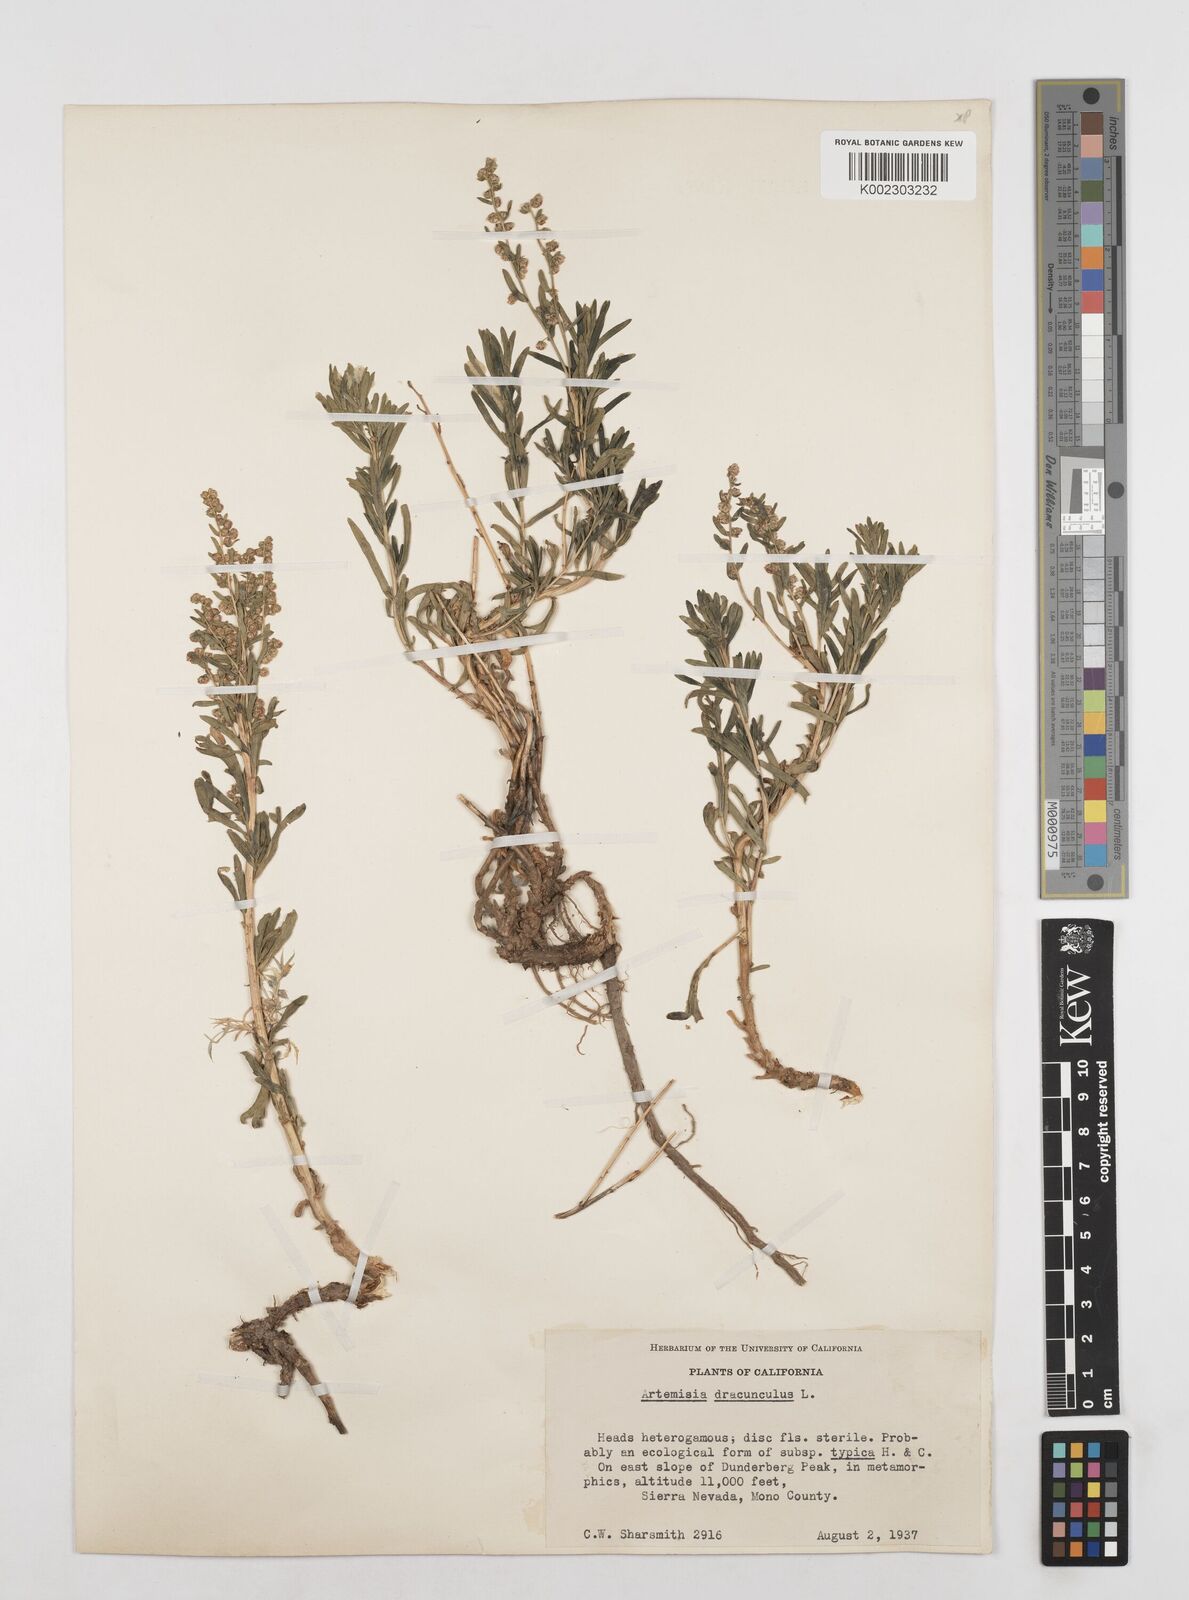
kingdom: Plantae
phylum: Tracheophyta
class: Magnoliopsida
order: Asterales
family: Asteraceae
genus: Artemisia
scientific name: Artemisia dracunculus
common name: Tarragon
